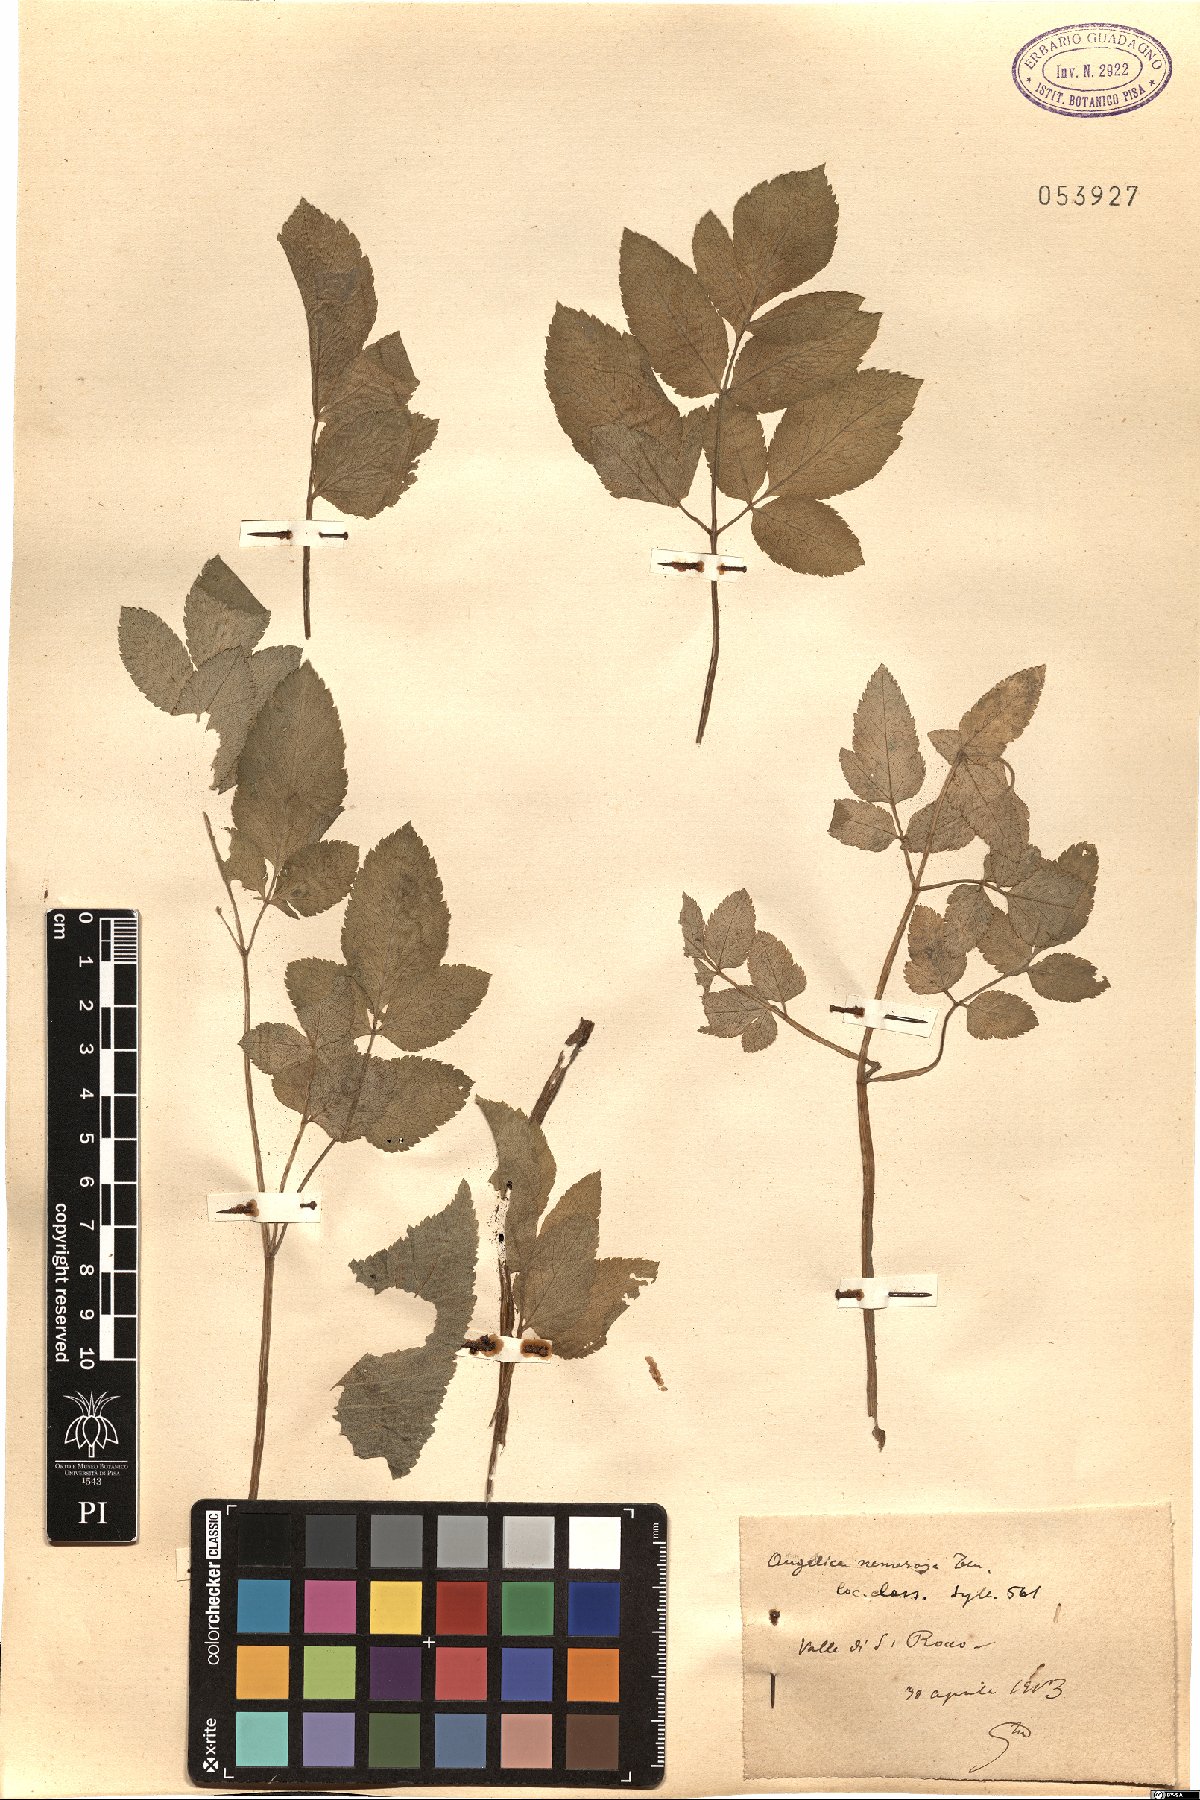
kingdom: Plantae
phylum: Tracheophyta
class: Magnoliopsida
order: Apiales
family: Apiaceae
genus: Angelica
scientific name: Angelica sylvestris
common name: Wild angelica
